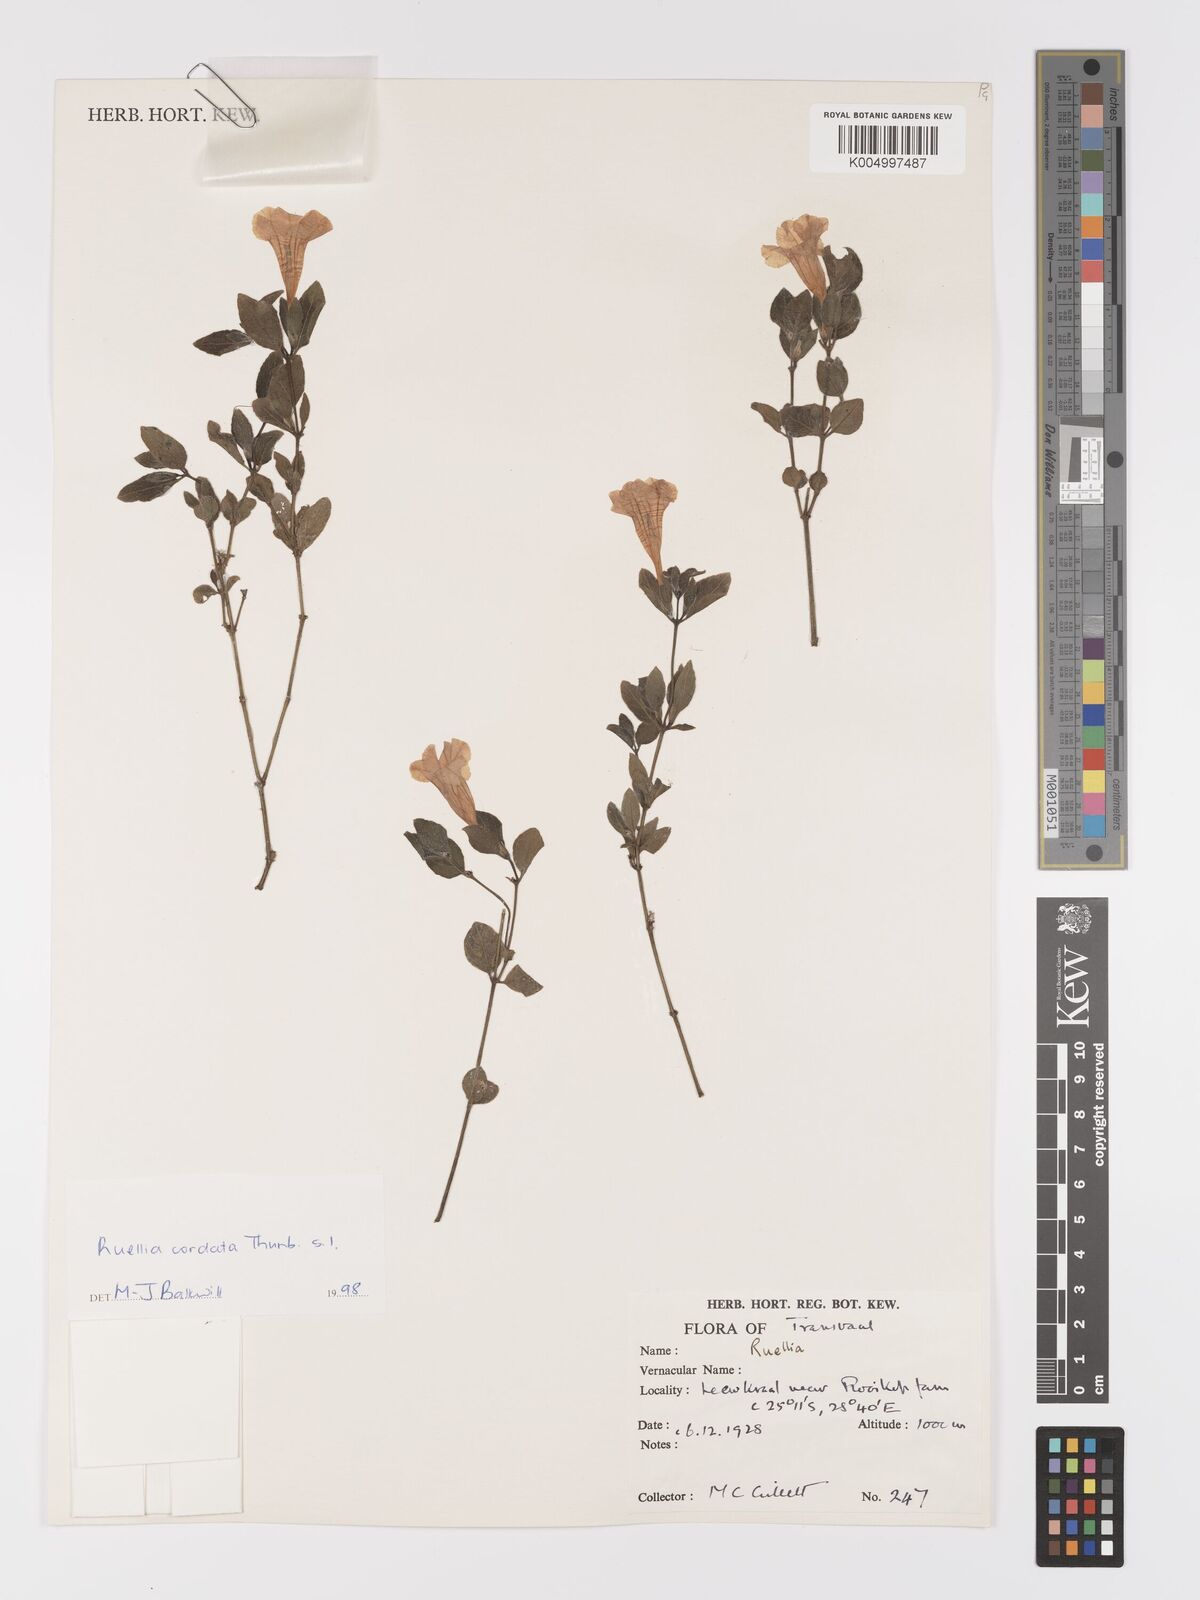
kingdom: Plantae
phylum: Tracheophyta
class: Magnoliopsida
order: Lamiales
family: Acanthaceae
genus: Ruellia
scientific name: Ruellia cordata
